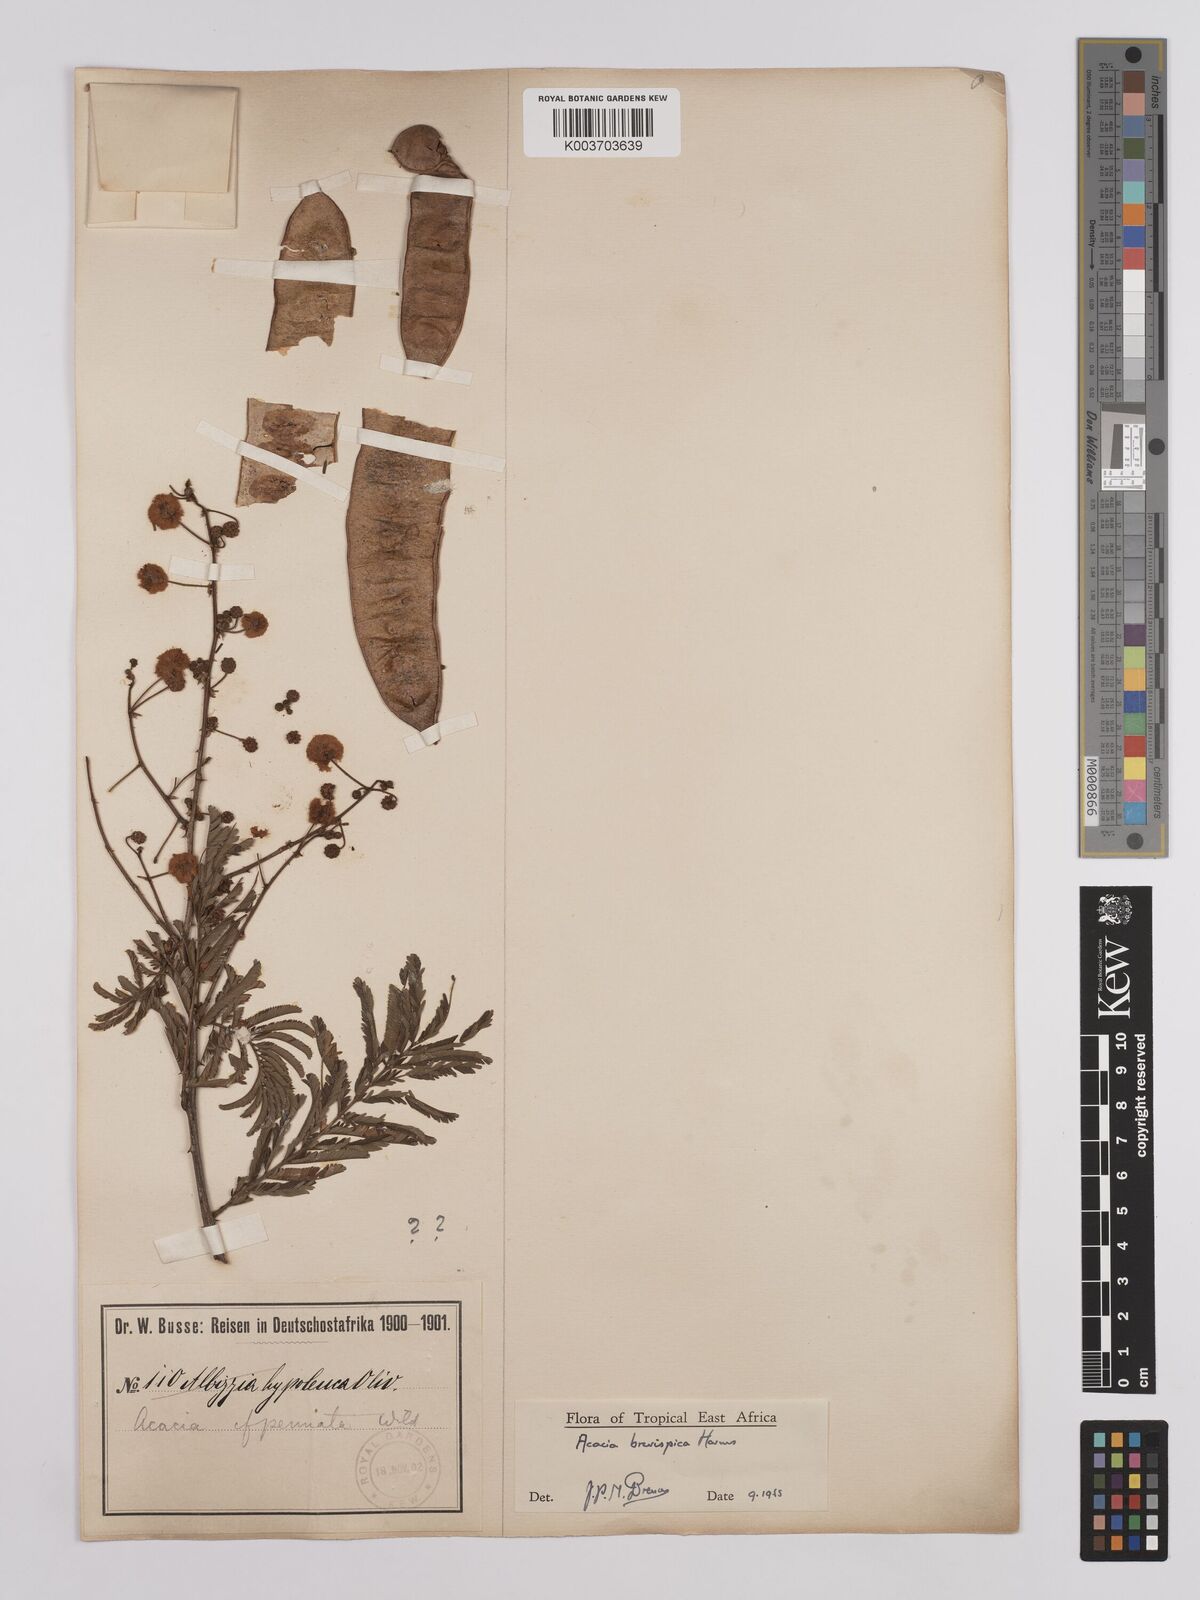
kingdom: Plantae
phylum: Tracheophyta
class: Magnoliopsida
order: Fabales
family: Fabaceae
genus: Senegalia
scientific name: Senegalia brevispica
